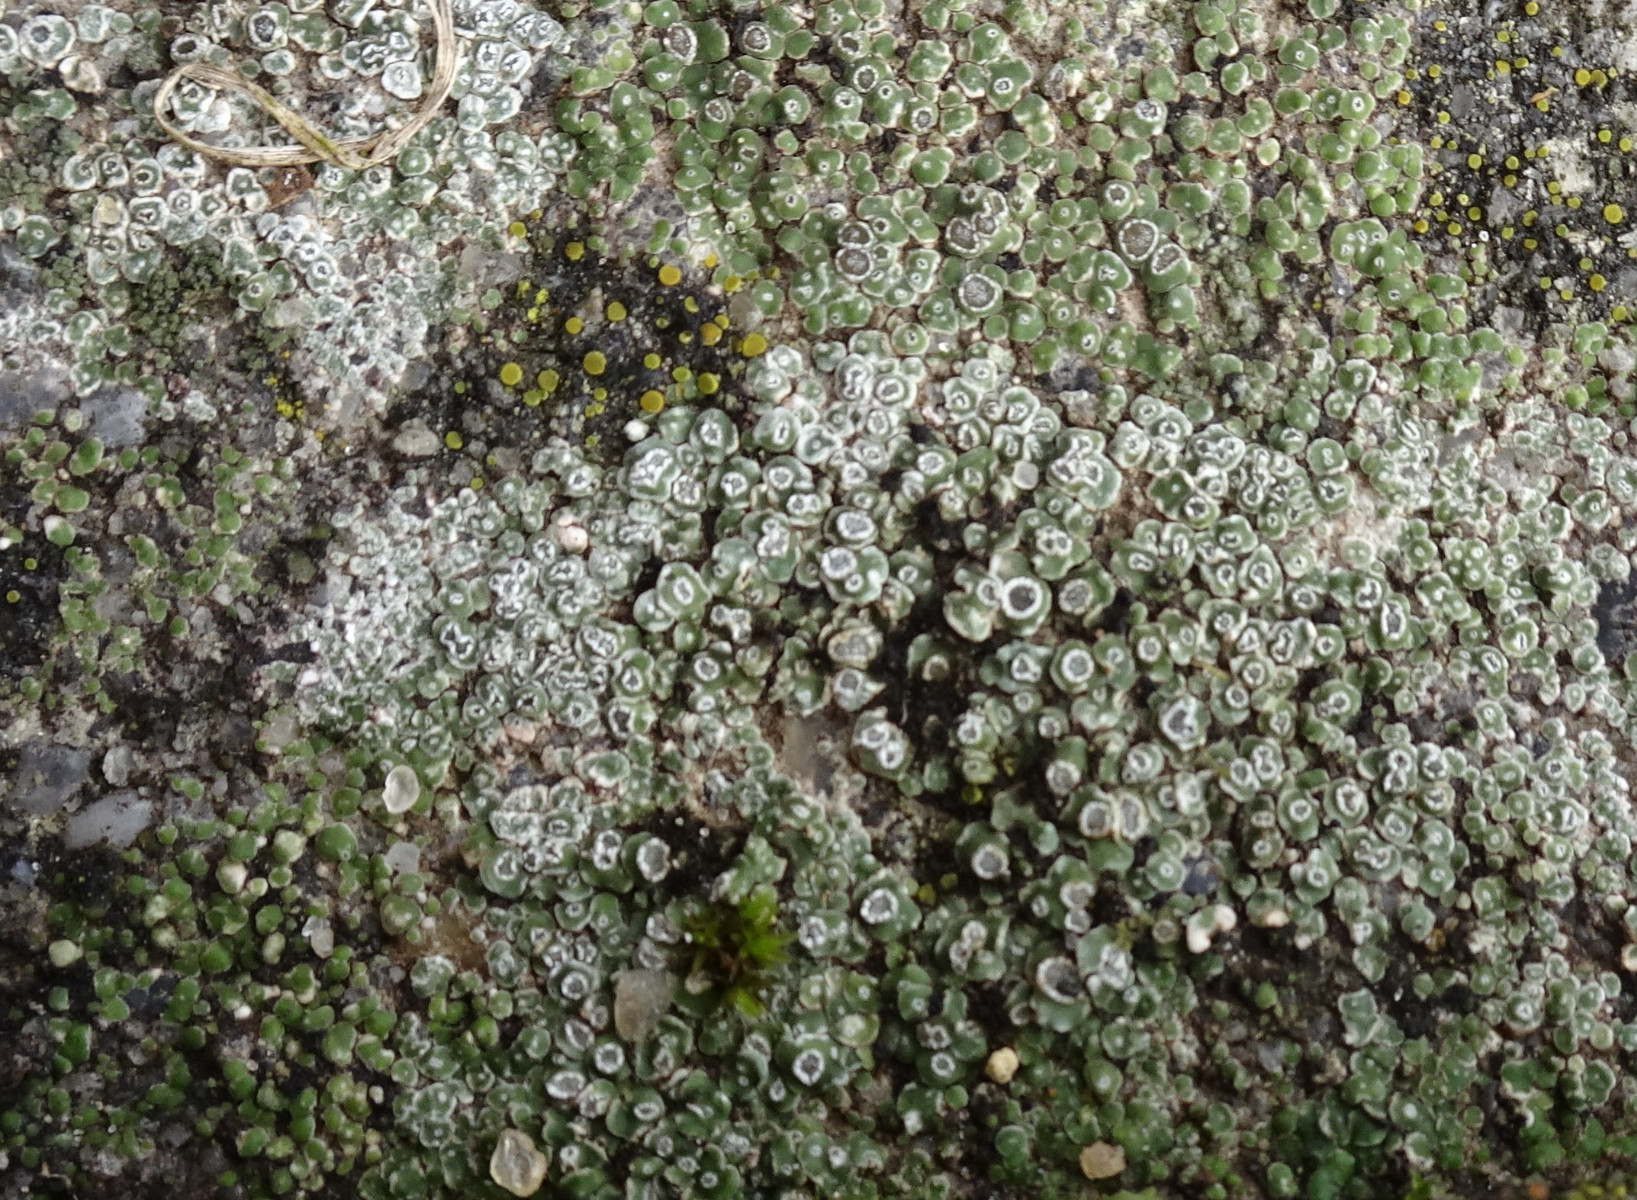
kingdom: Fungi
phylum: Ascomycota
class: Lecanoromycetes
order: Pertusariales
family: Megasporaceae
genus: Circinaria
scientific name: Circinaria contorta
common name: indviklet hulskivelav
